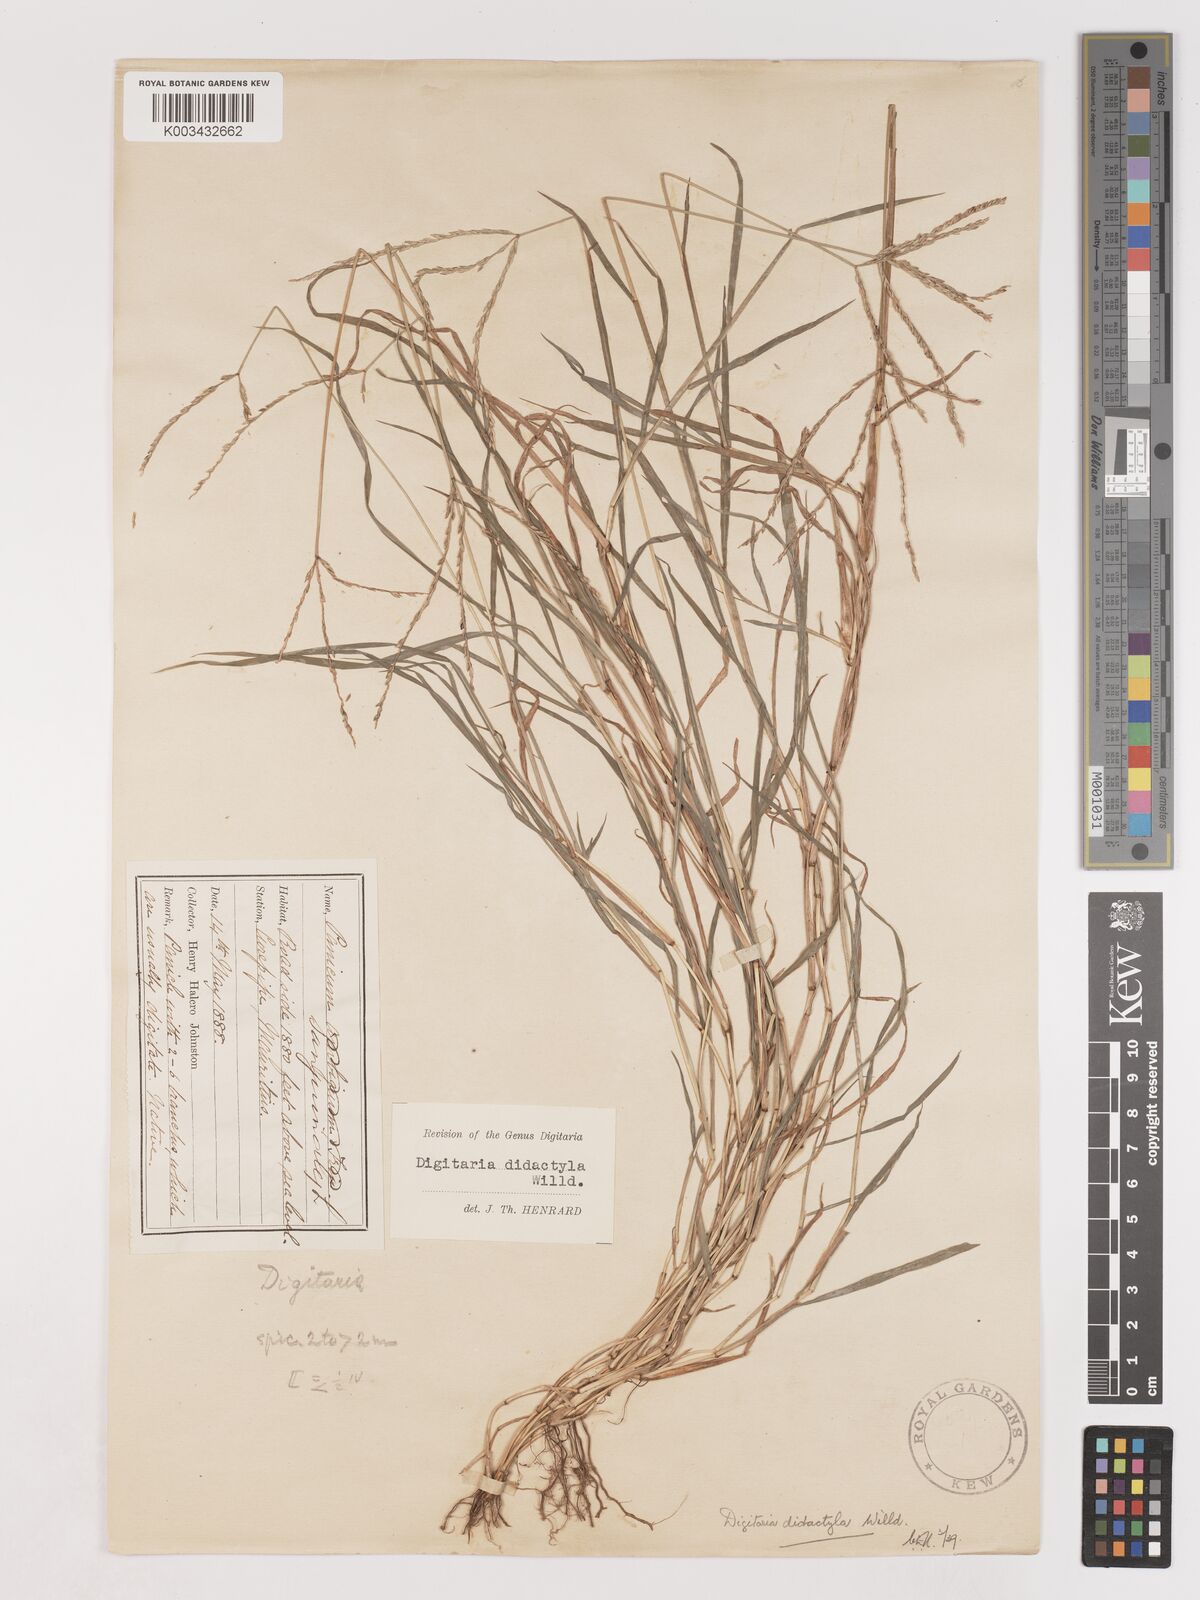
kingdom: Plantae
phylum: Tracheophyta
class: Liliopsida
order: Poales
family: Poaceae
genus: Digitaria
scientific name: Digitaria didactyla
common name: Blue couch
